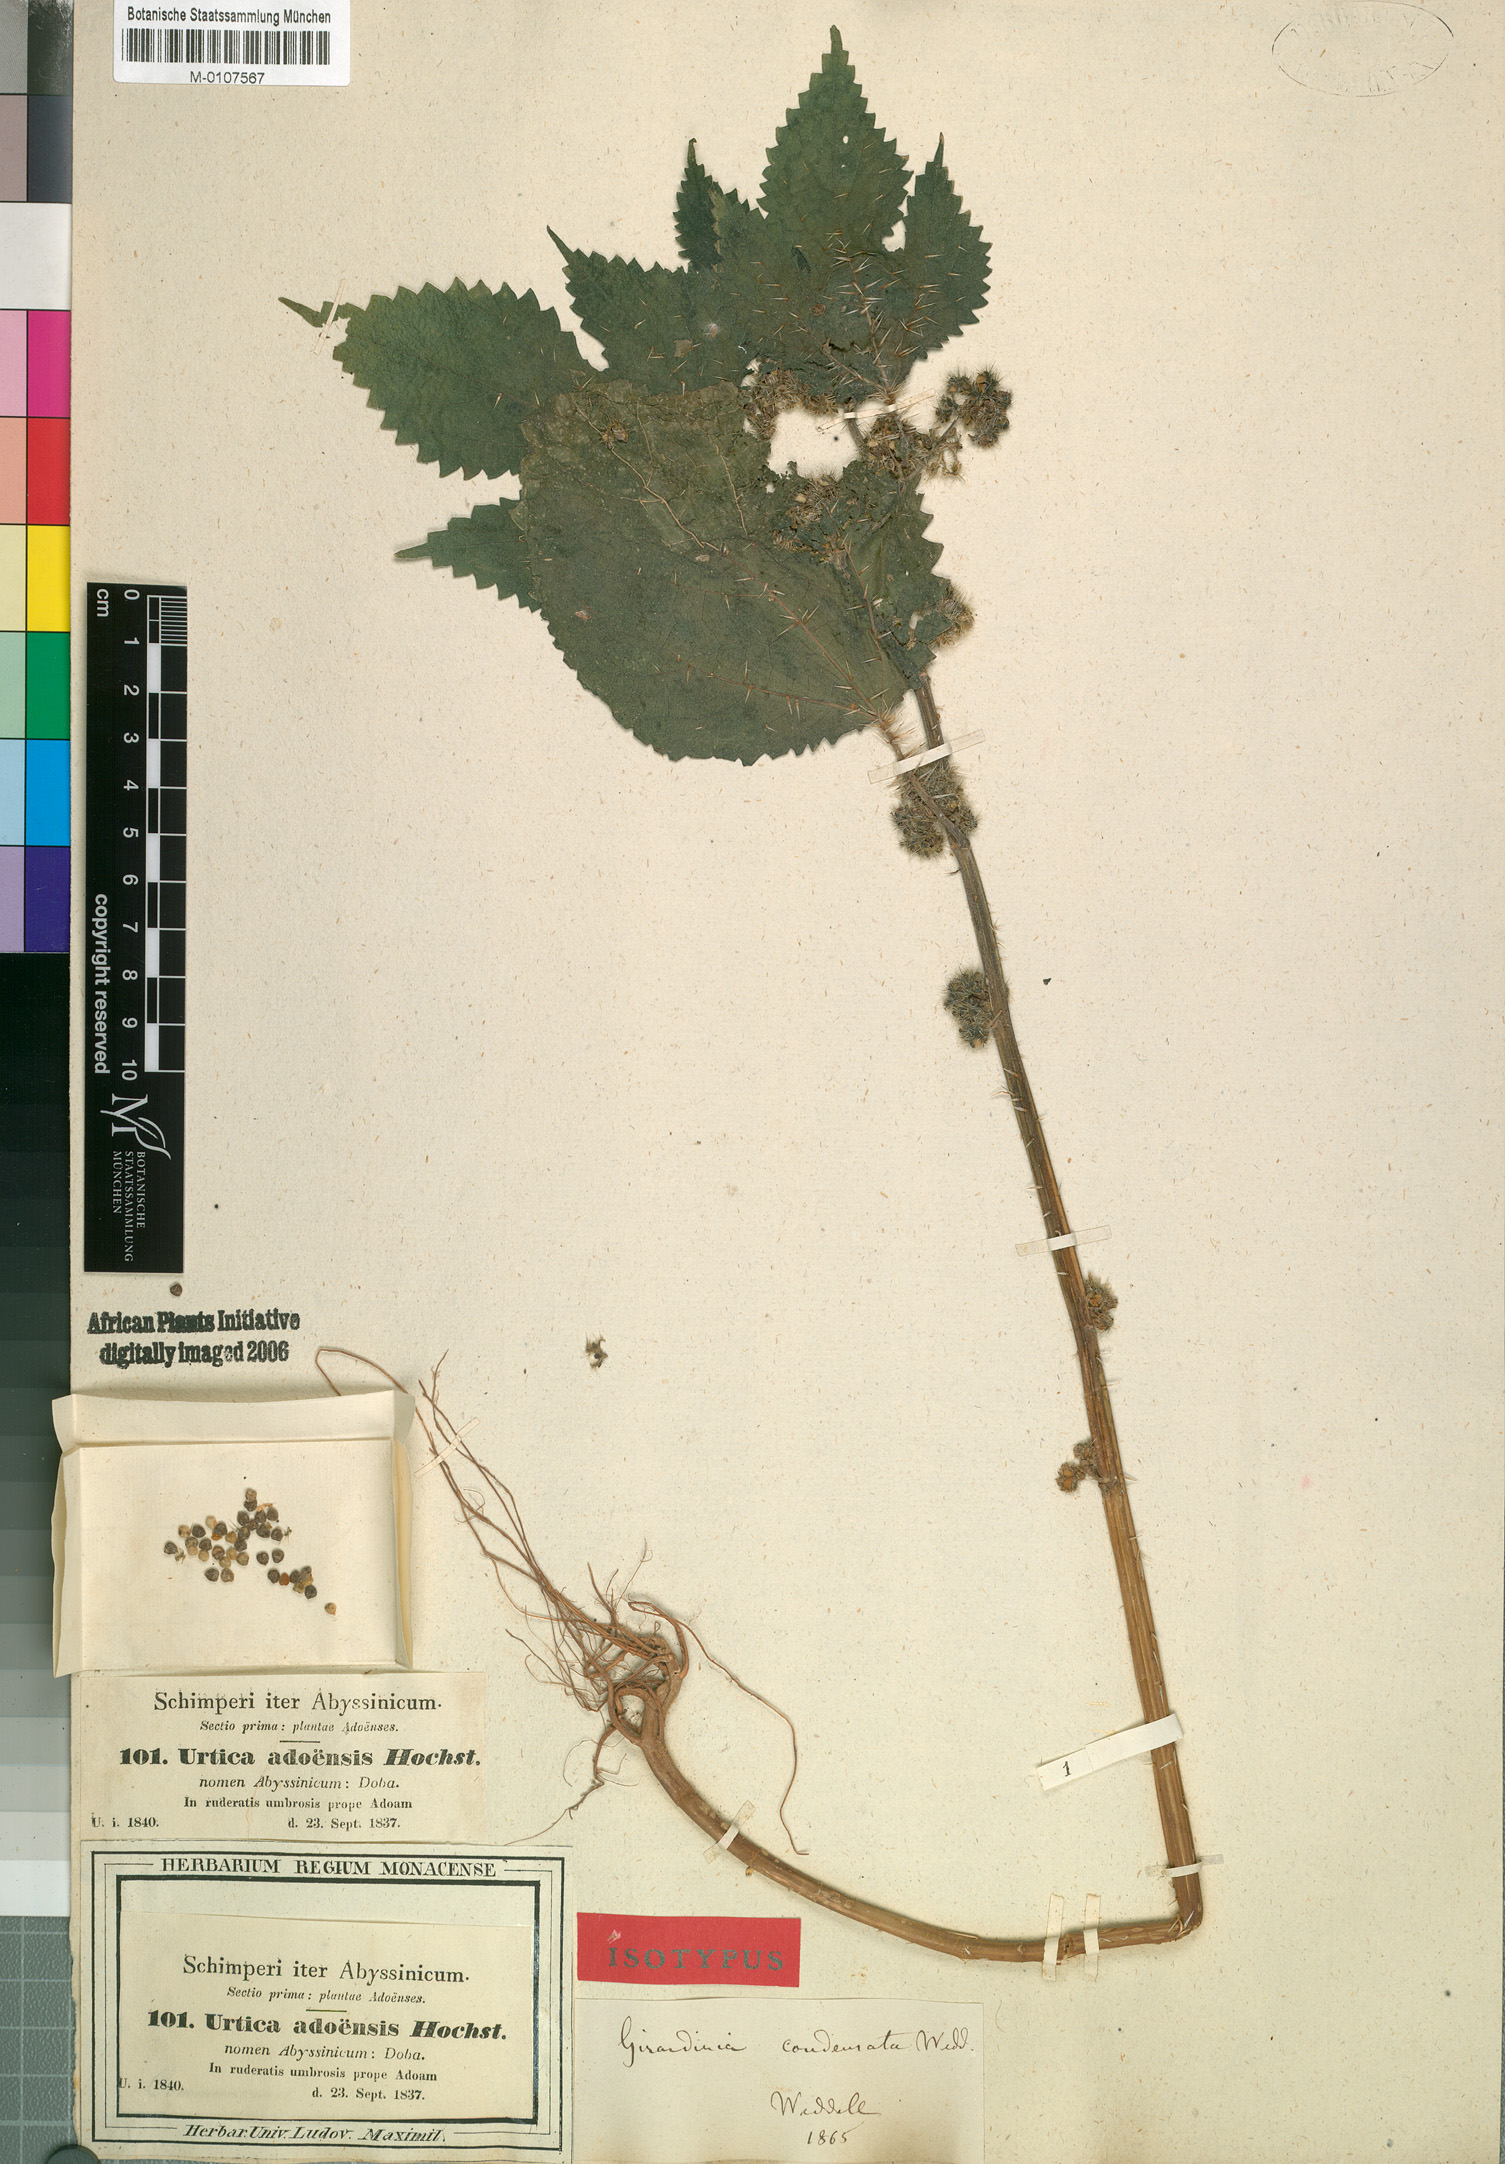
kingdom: Plantae
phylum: Tracheophyta
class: Magnoliopsida
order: Rosales
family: Urticaceae
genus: Girardinia
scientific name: Girardinia diversifolia
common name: Himalayan-nettle
